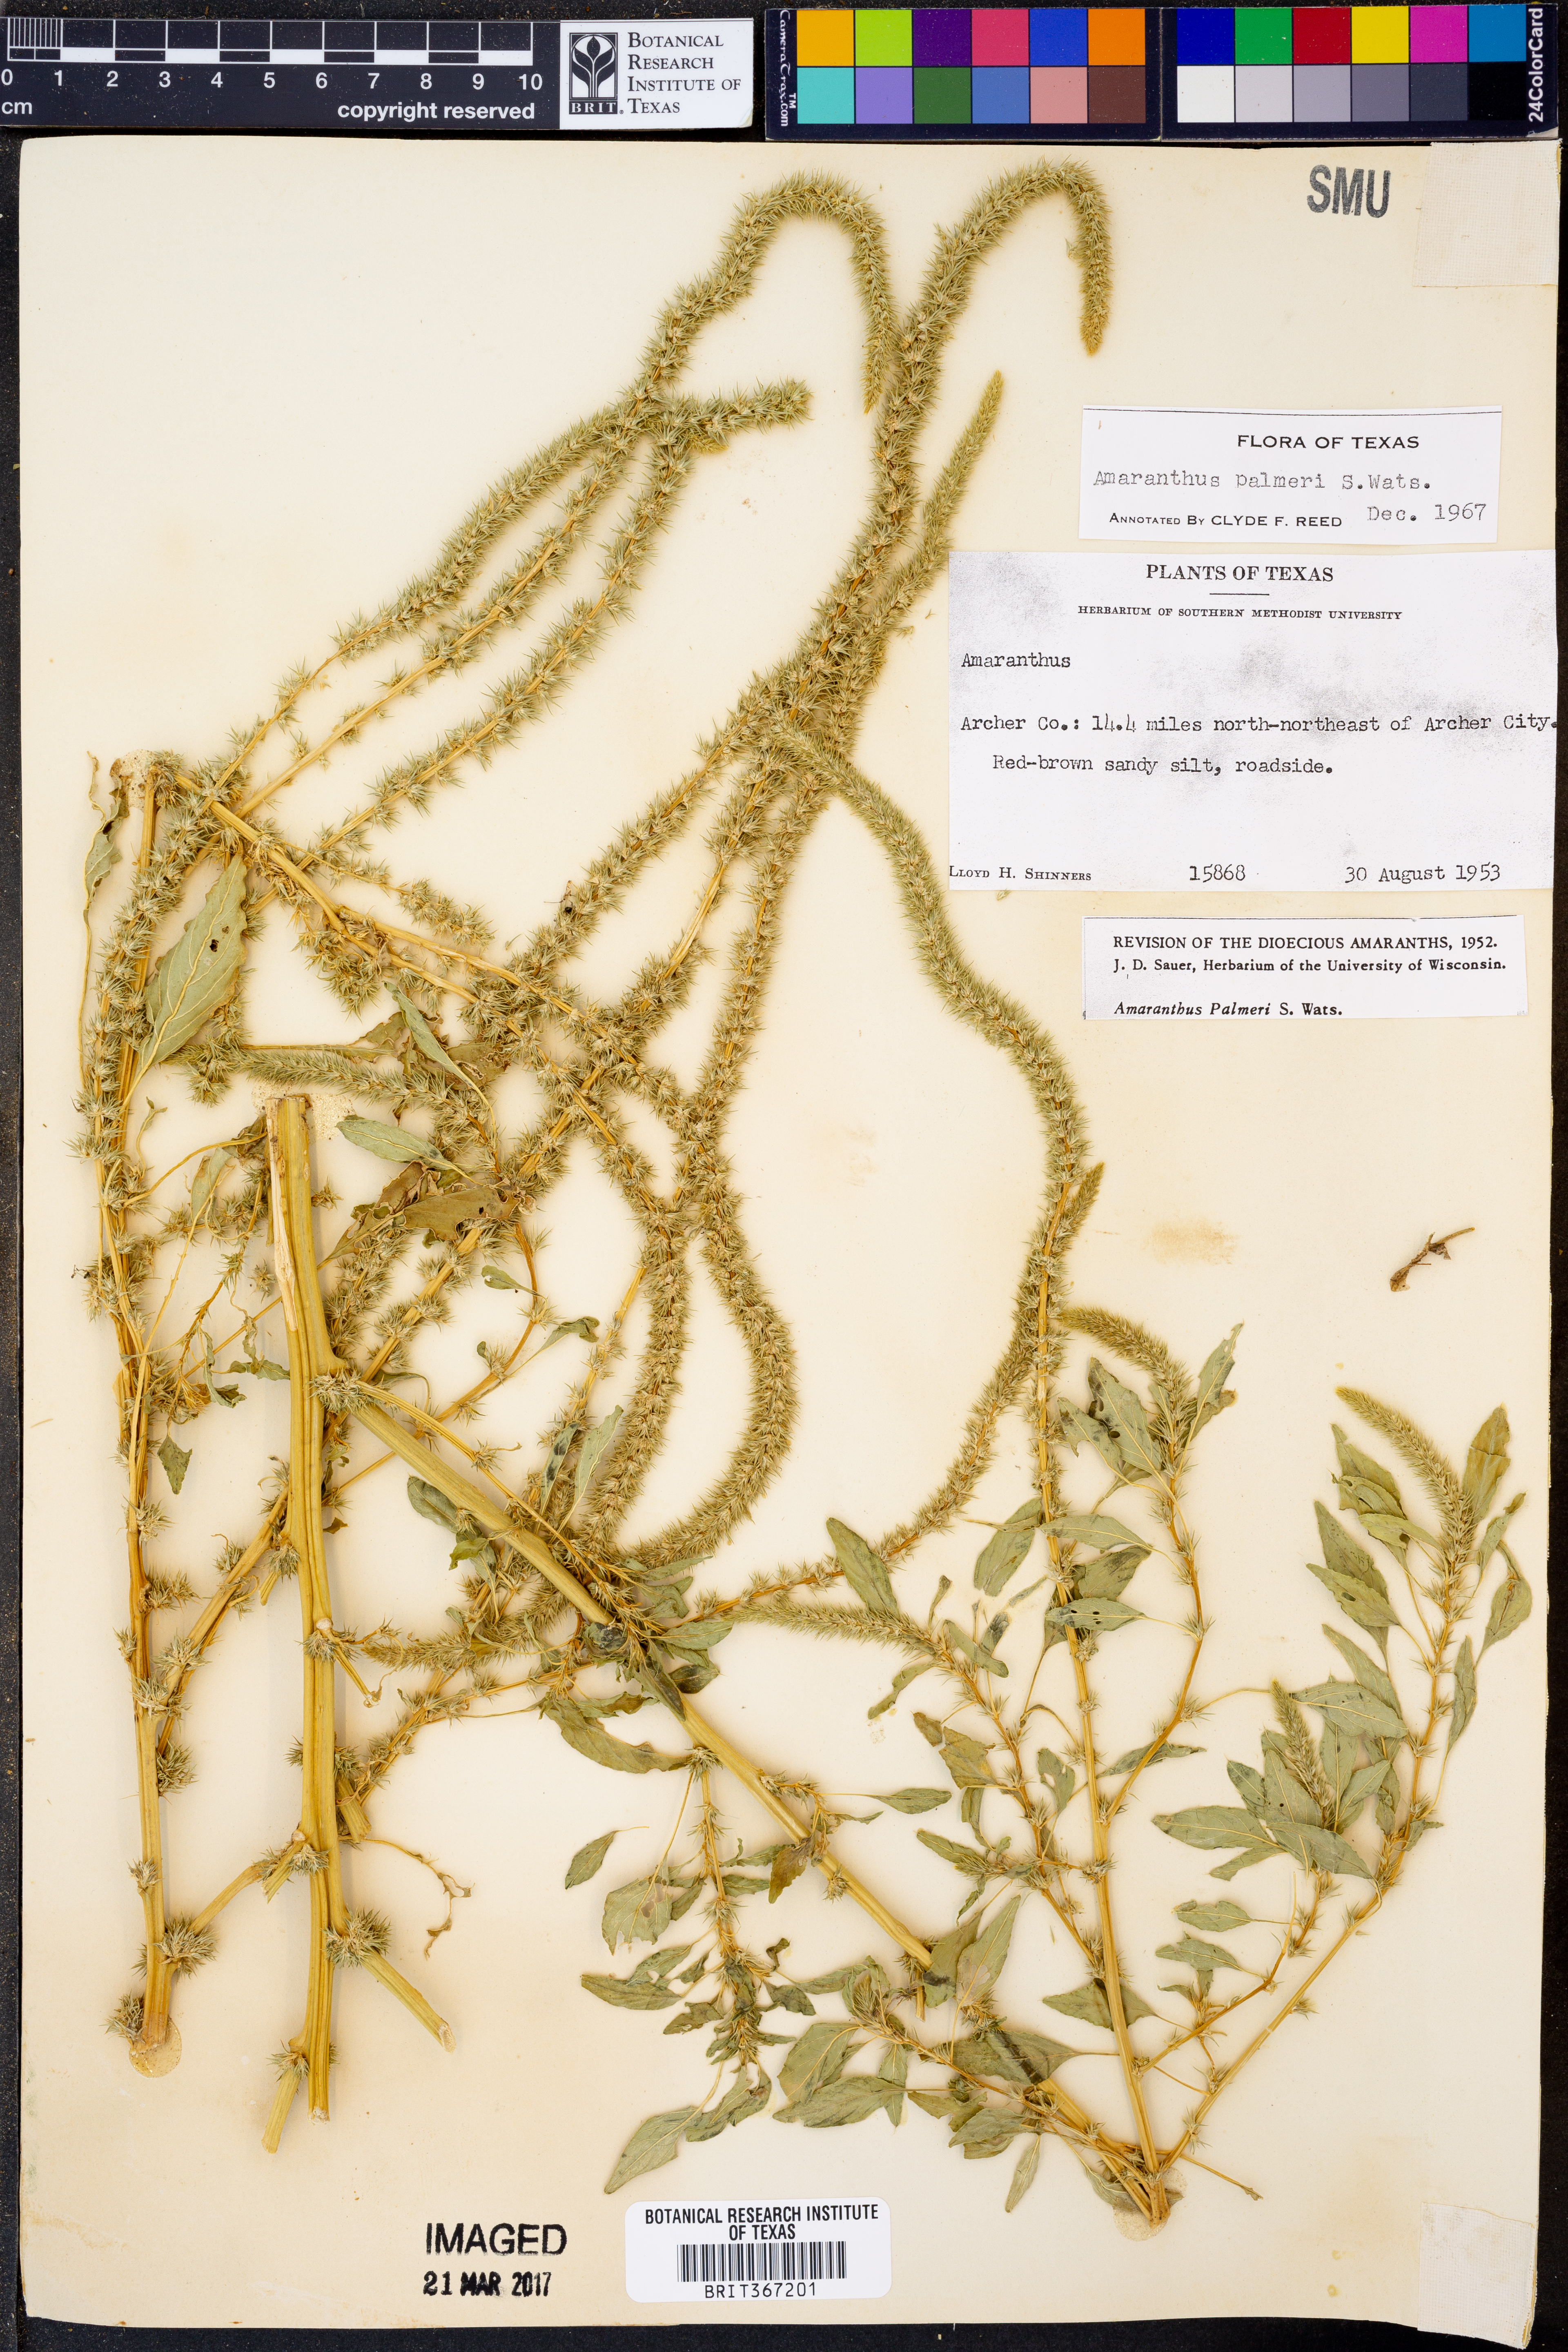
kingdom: Plantae
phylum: Tracheophyta
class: Magnoliopsida
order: Caryophyllales
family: Amaranthaceae
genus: Amaranthus
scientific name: Amaranthus palmeri
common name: Dioecious amaranth
